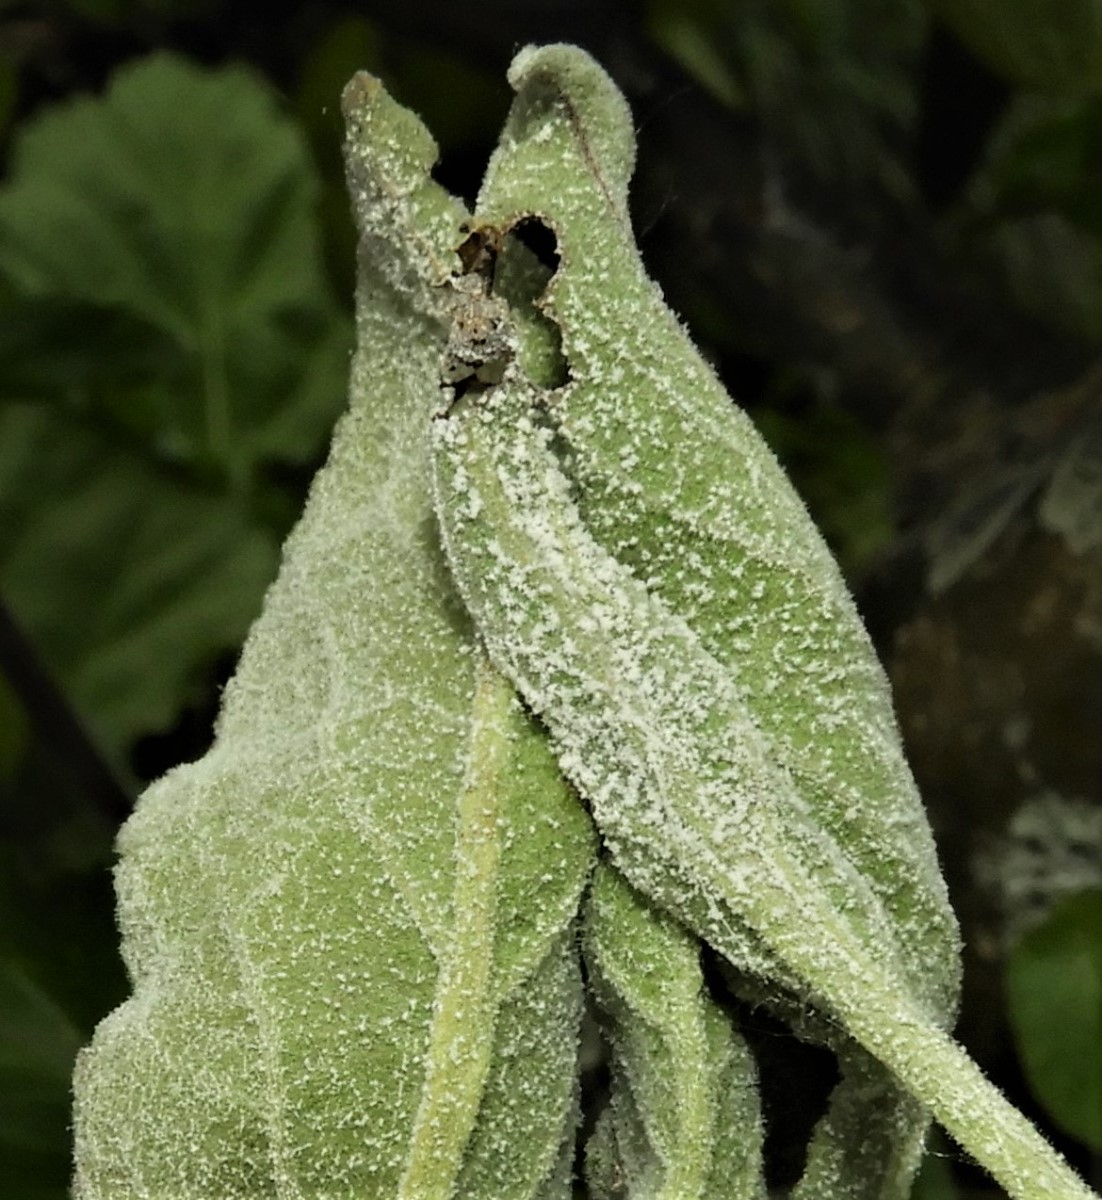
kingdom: Fungi
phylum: Ascomycota
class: Leotiomycetes
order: Helotiales
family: Erysiphaceae
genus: Podosphaera
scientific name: Podosphaera leucotricha
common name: æble-meldug
